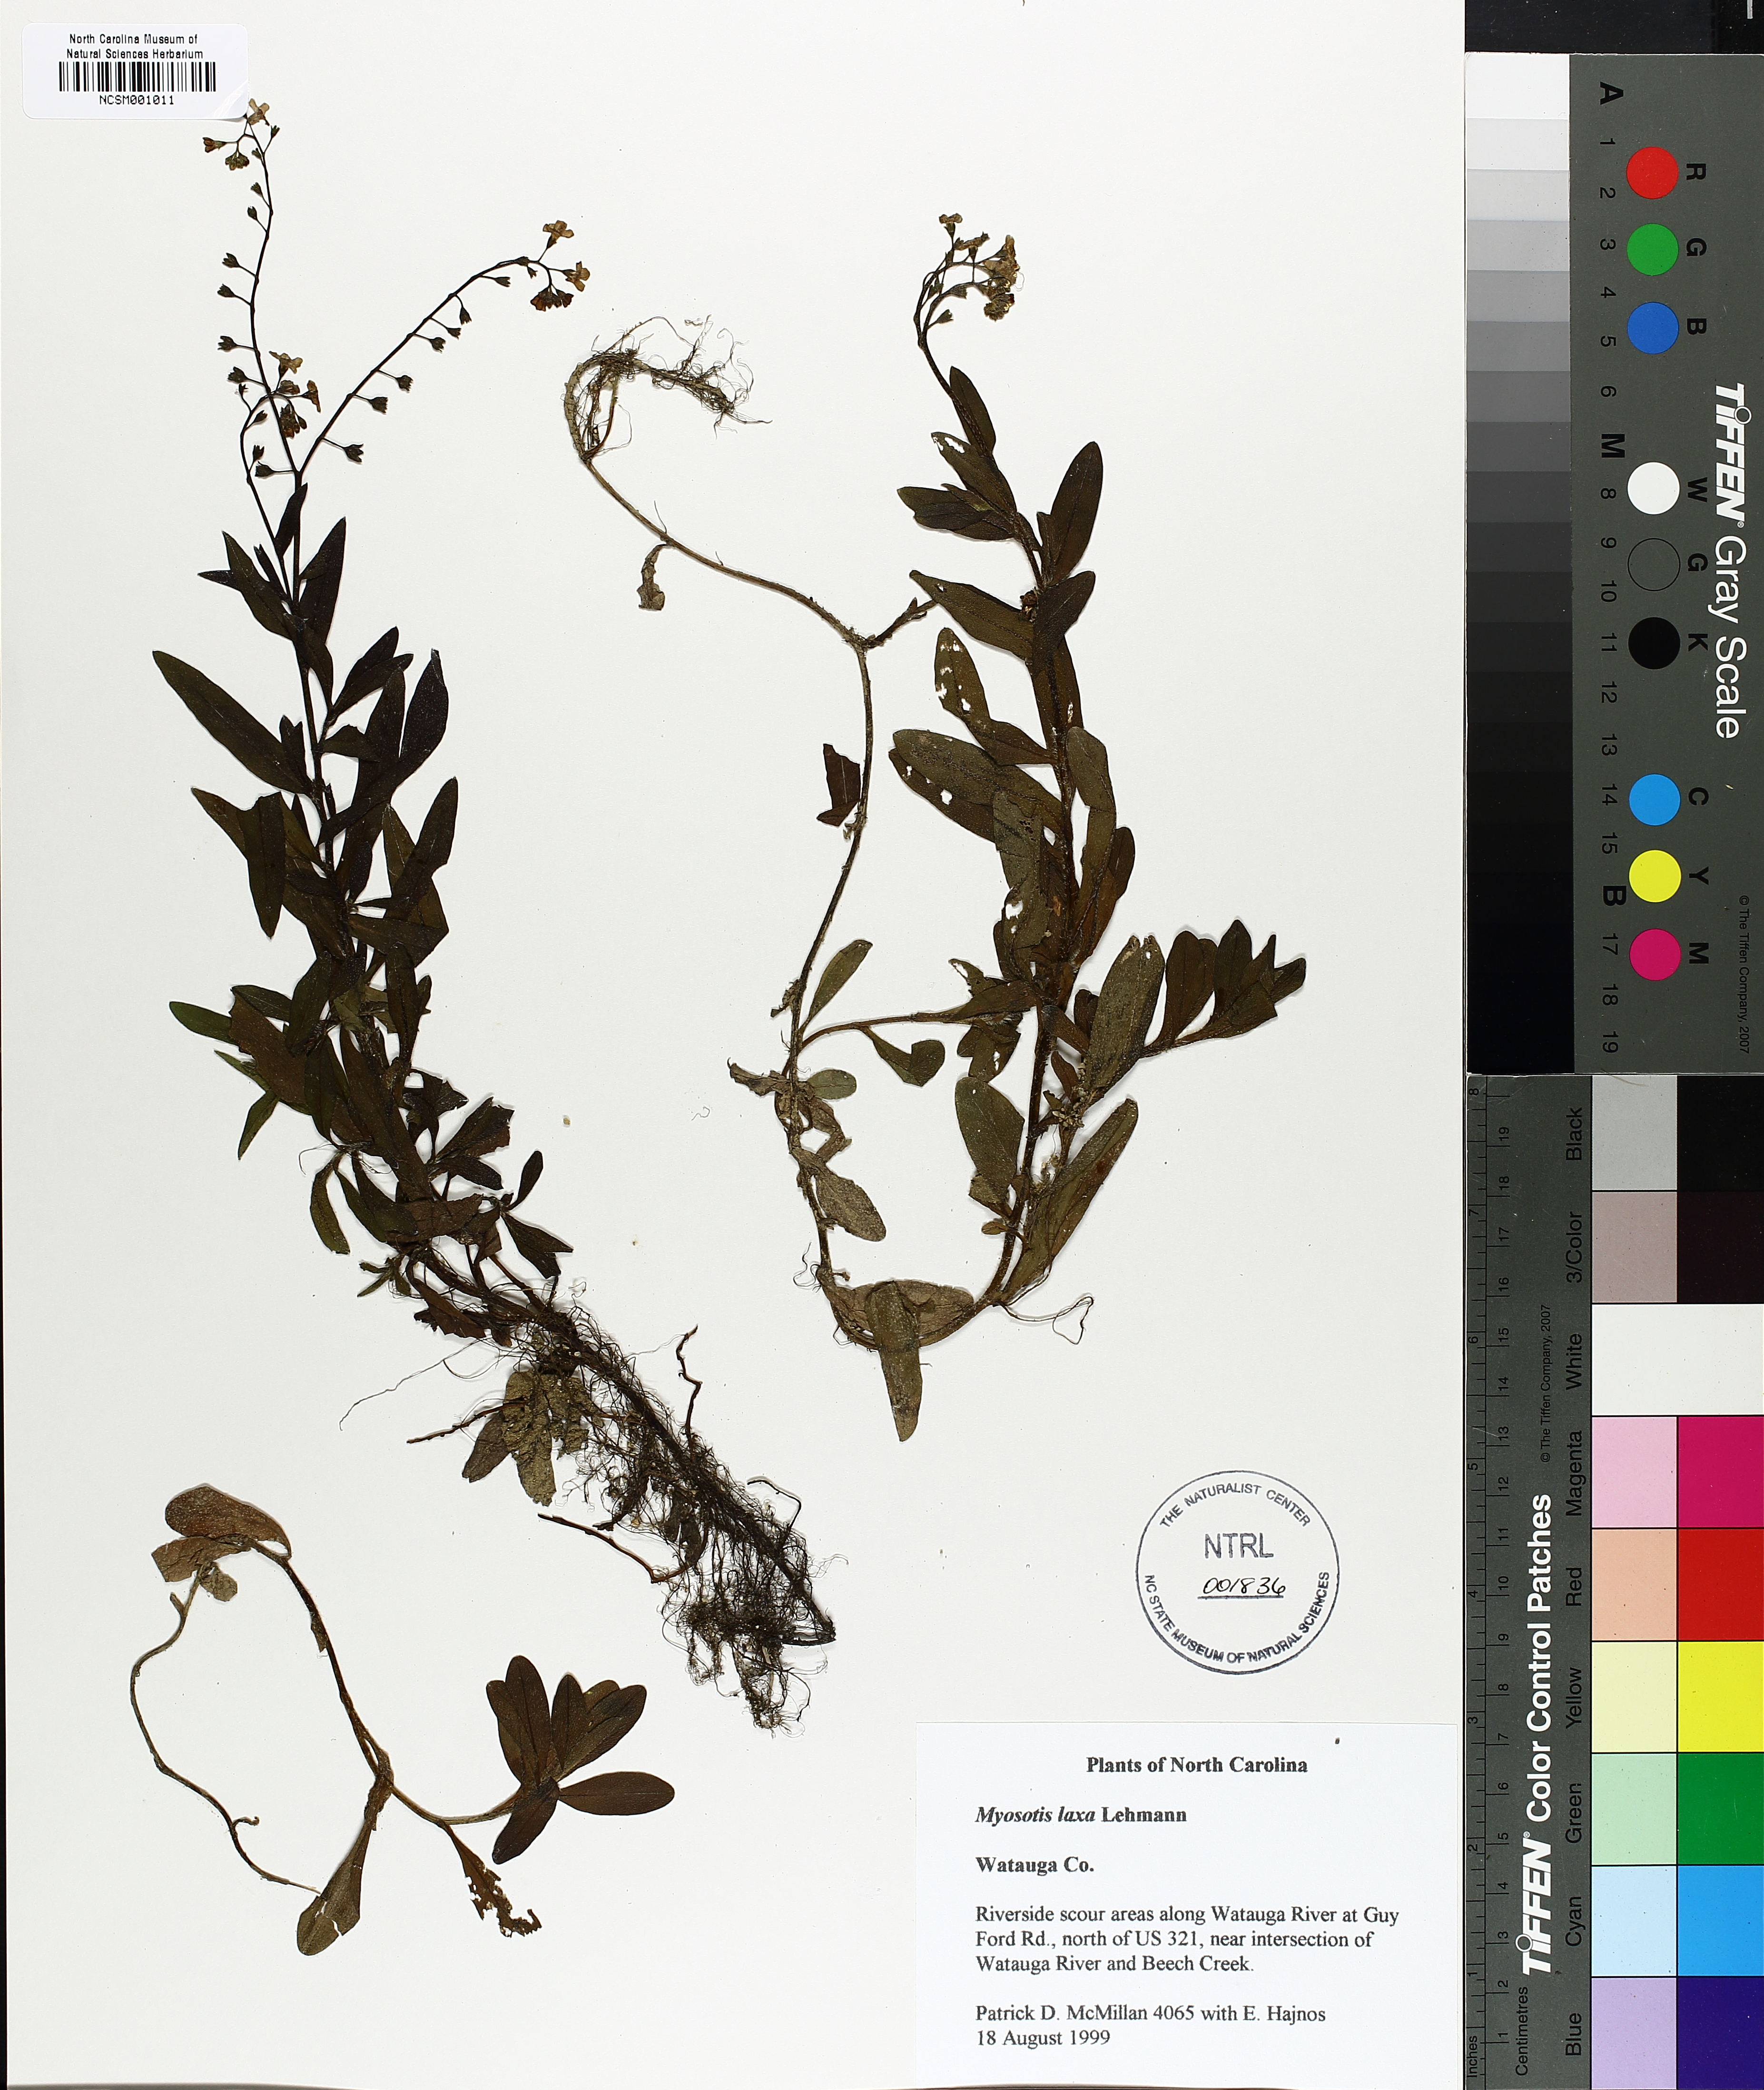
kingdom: Plantae
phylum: Tracheophyta
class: Magnoliopsida
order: Boraginales
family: Boraginaceae
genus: Myosotis
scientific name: Myosotis laxa
